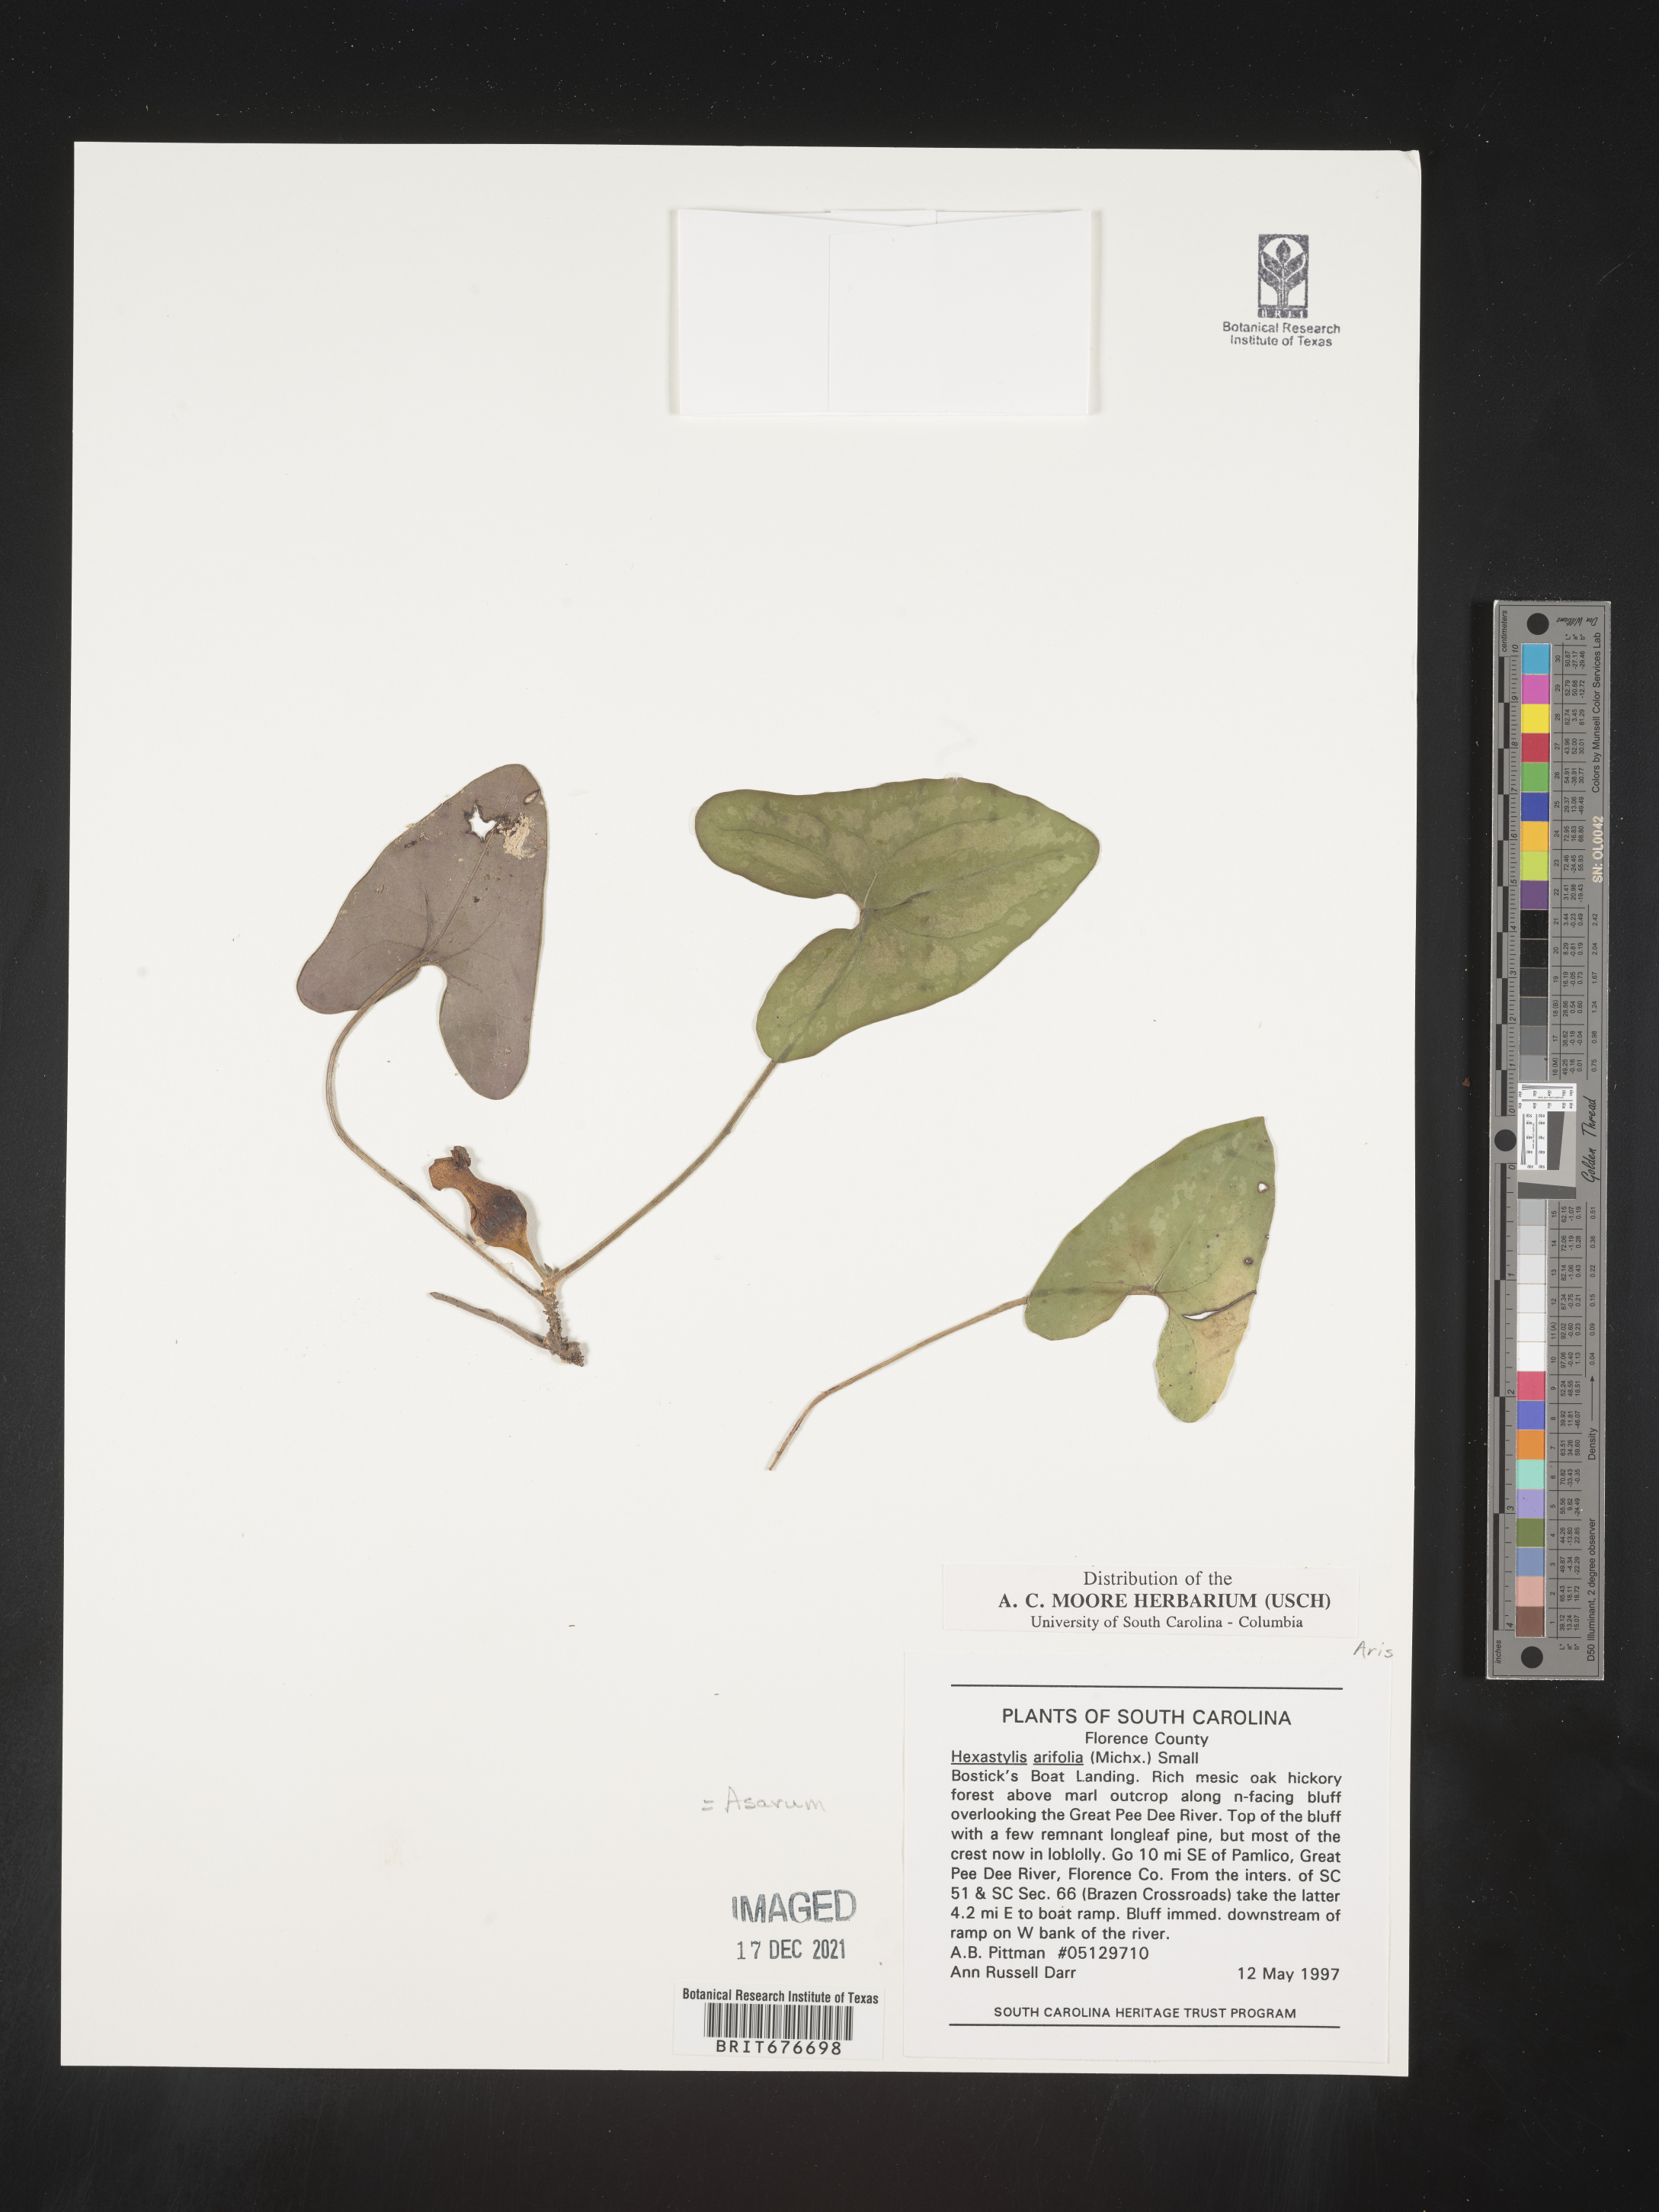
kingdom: Plantae
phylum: Tracheophyta
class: Magnoliopsida
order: Piperales
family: Aristolochiaceae
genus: Hexastylis
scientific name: Hexastylis arifolia
